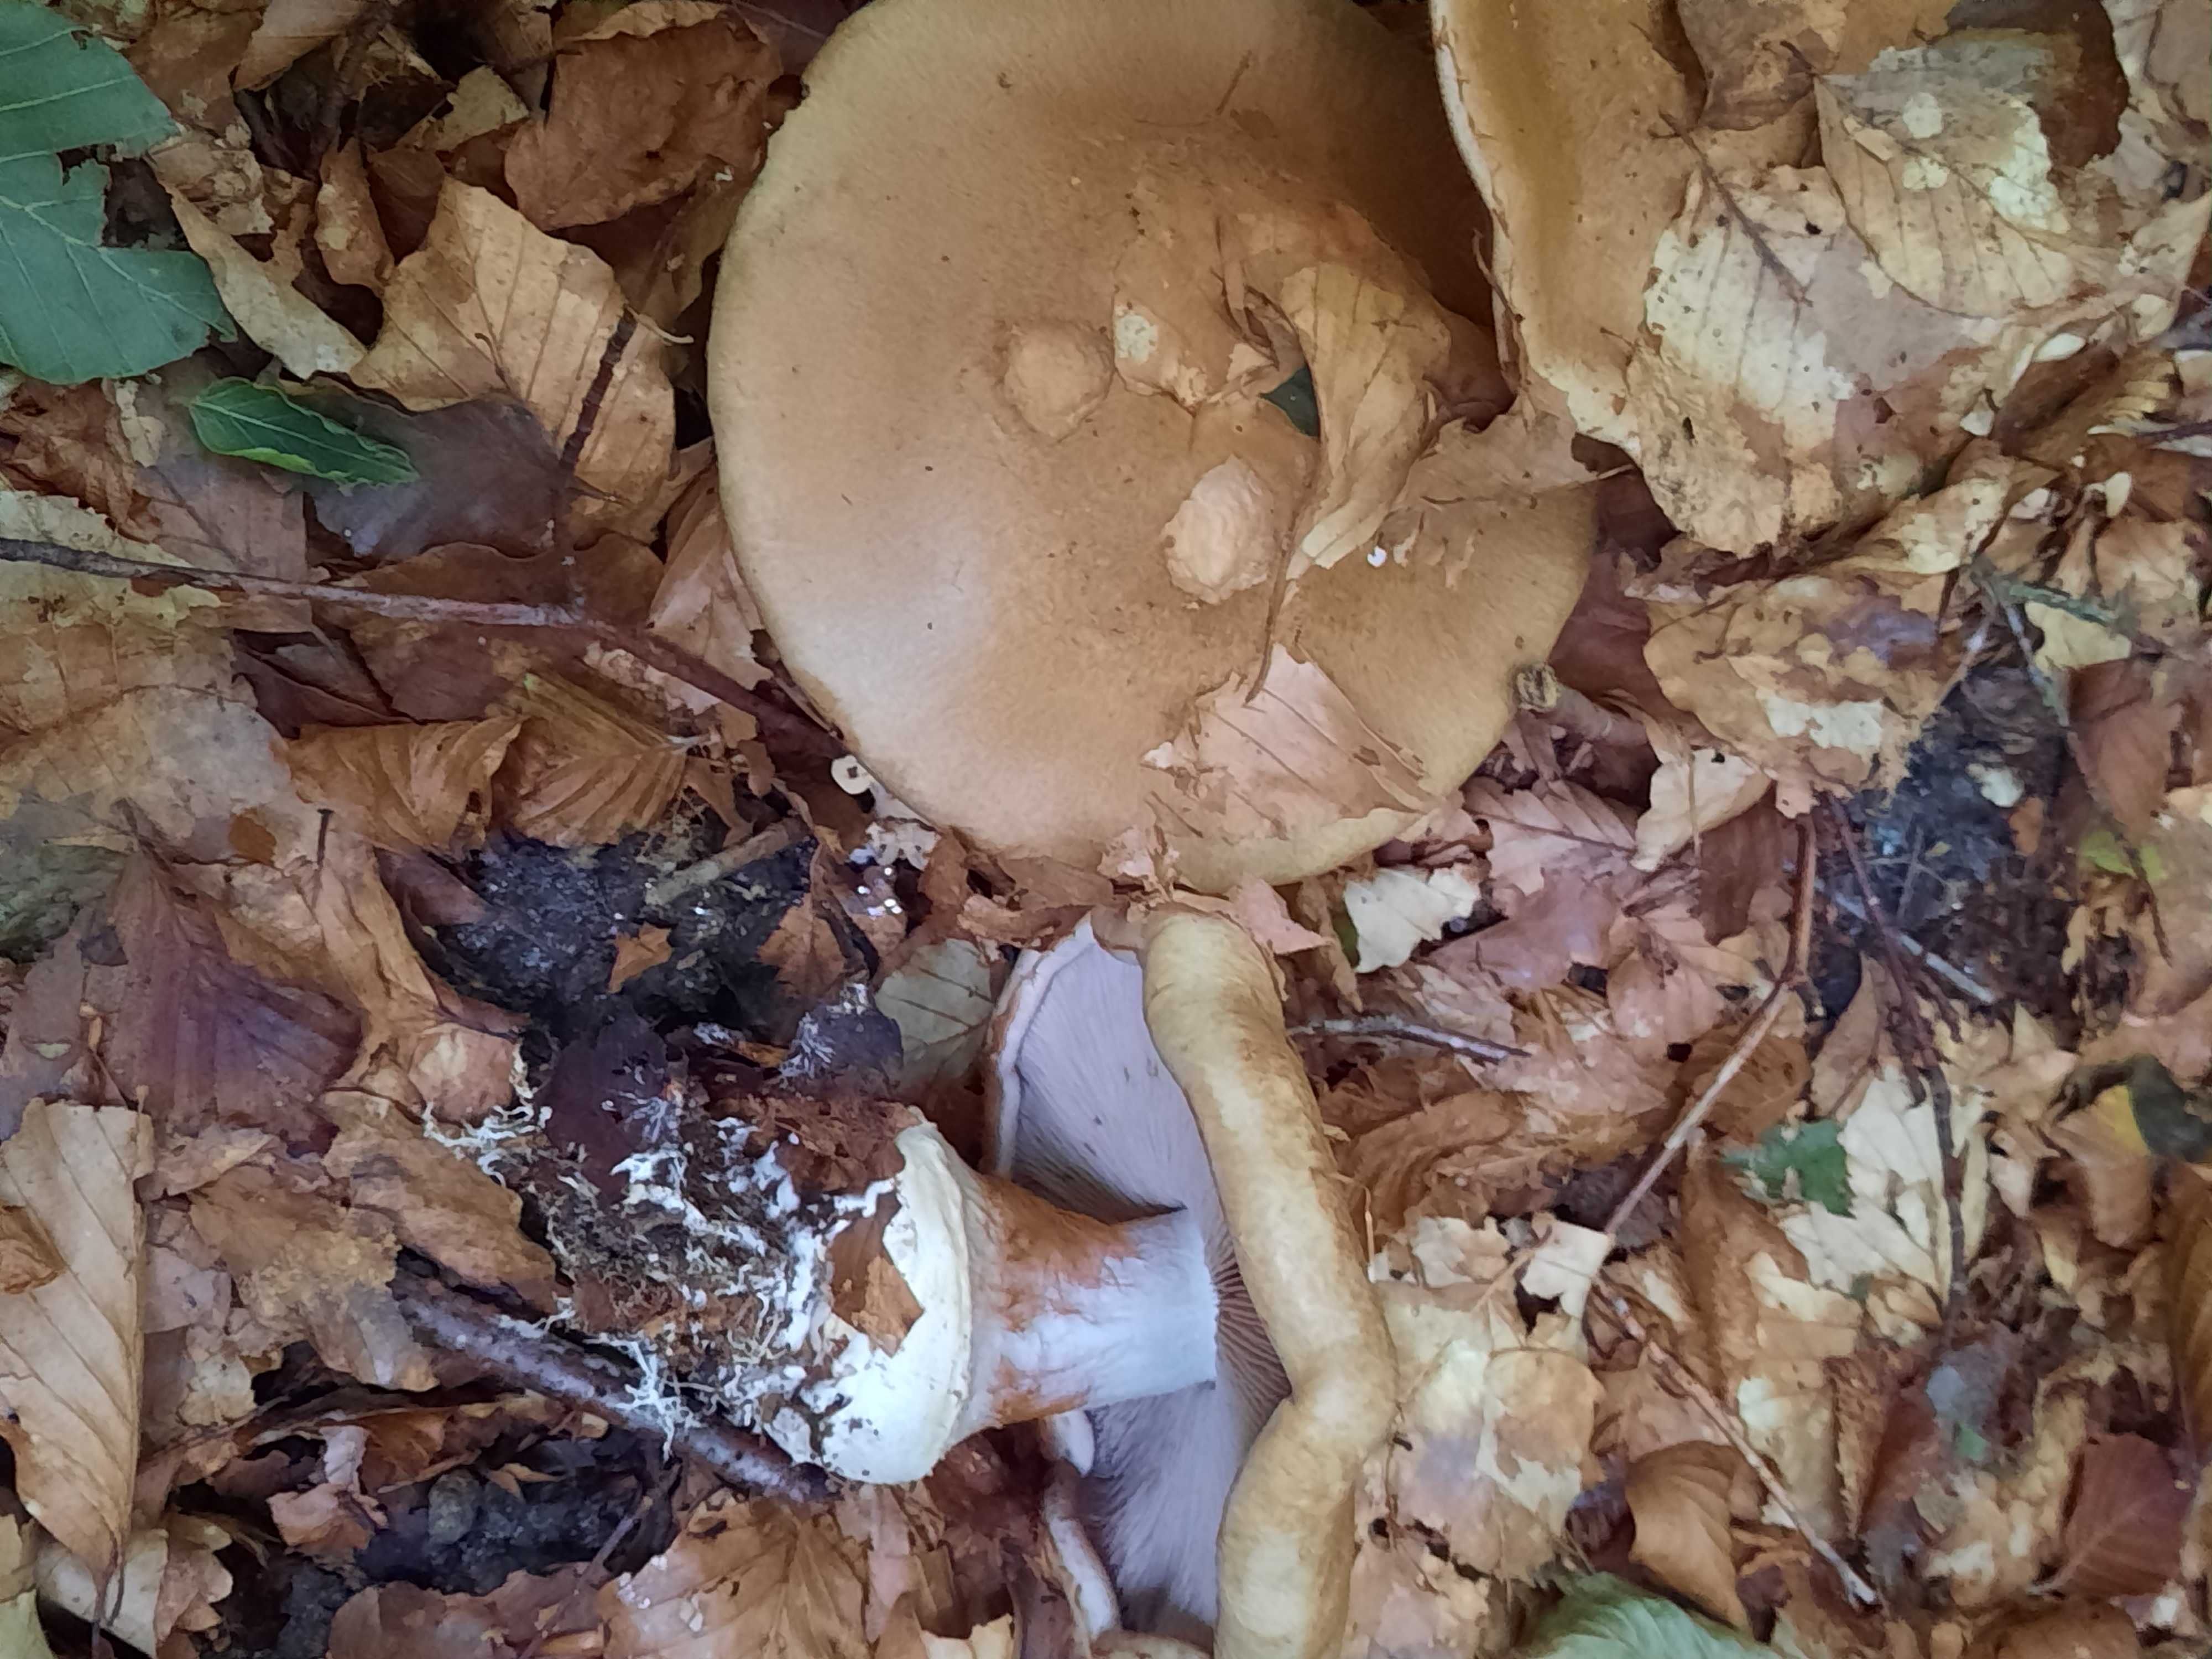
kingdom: Fungi
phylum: Basidiomycota
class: Agaricomycetes
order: Agaricales
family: Cortinariaceae
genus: Cortinarius
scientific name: Cortinarius anserinus
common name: bøge-slørhat
